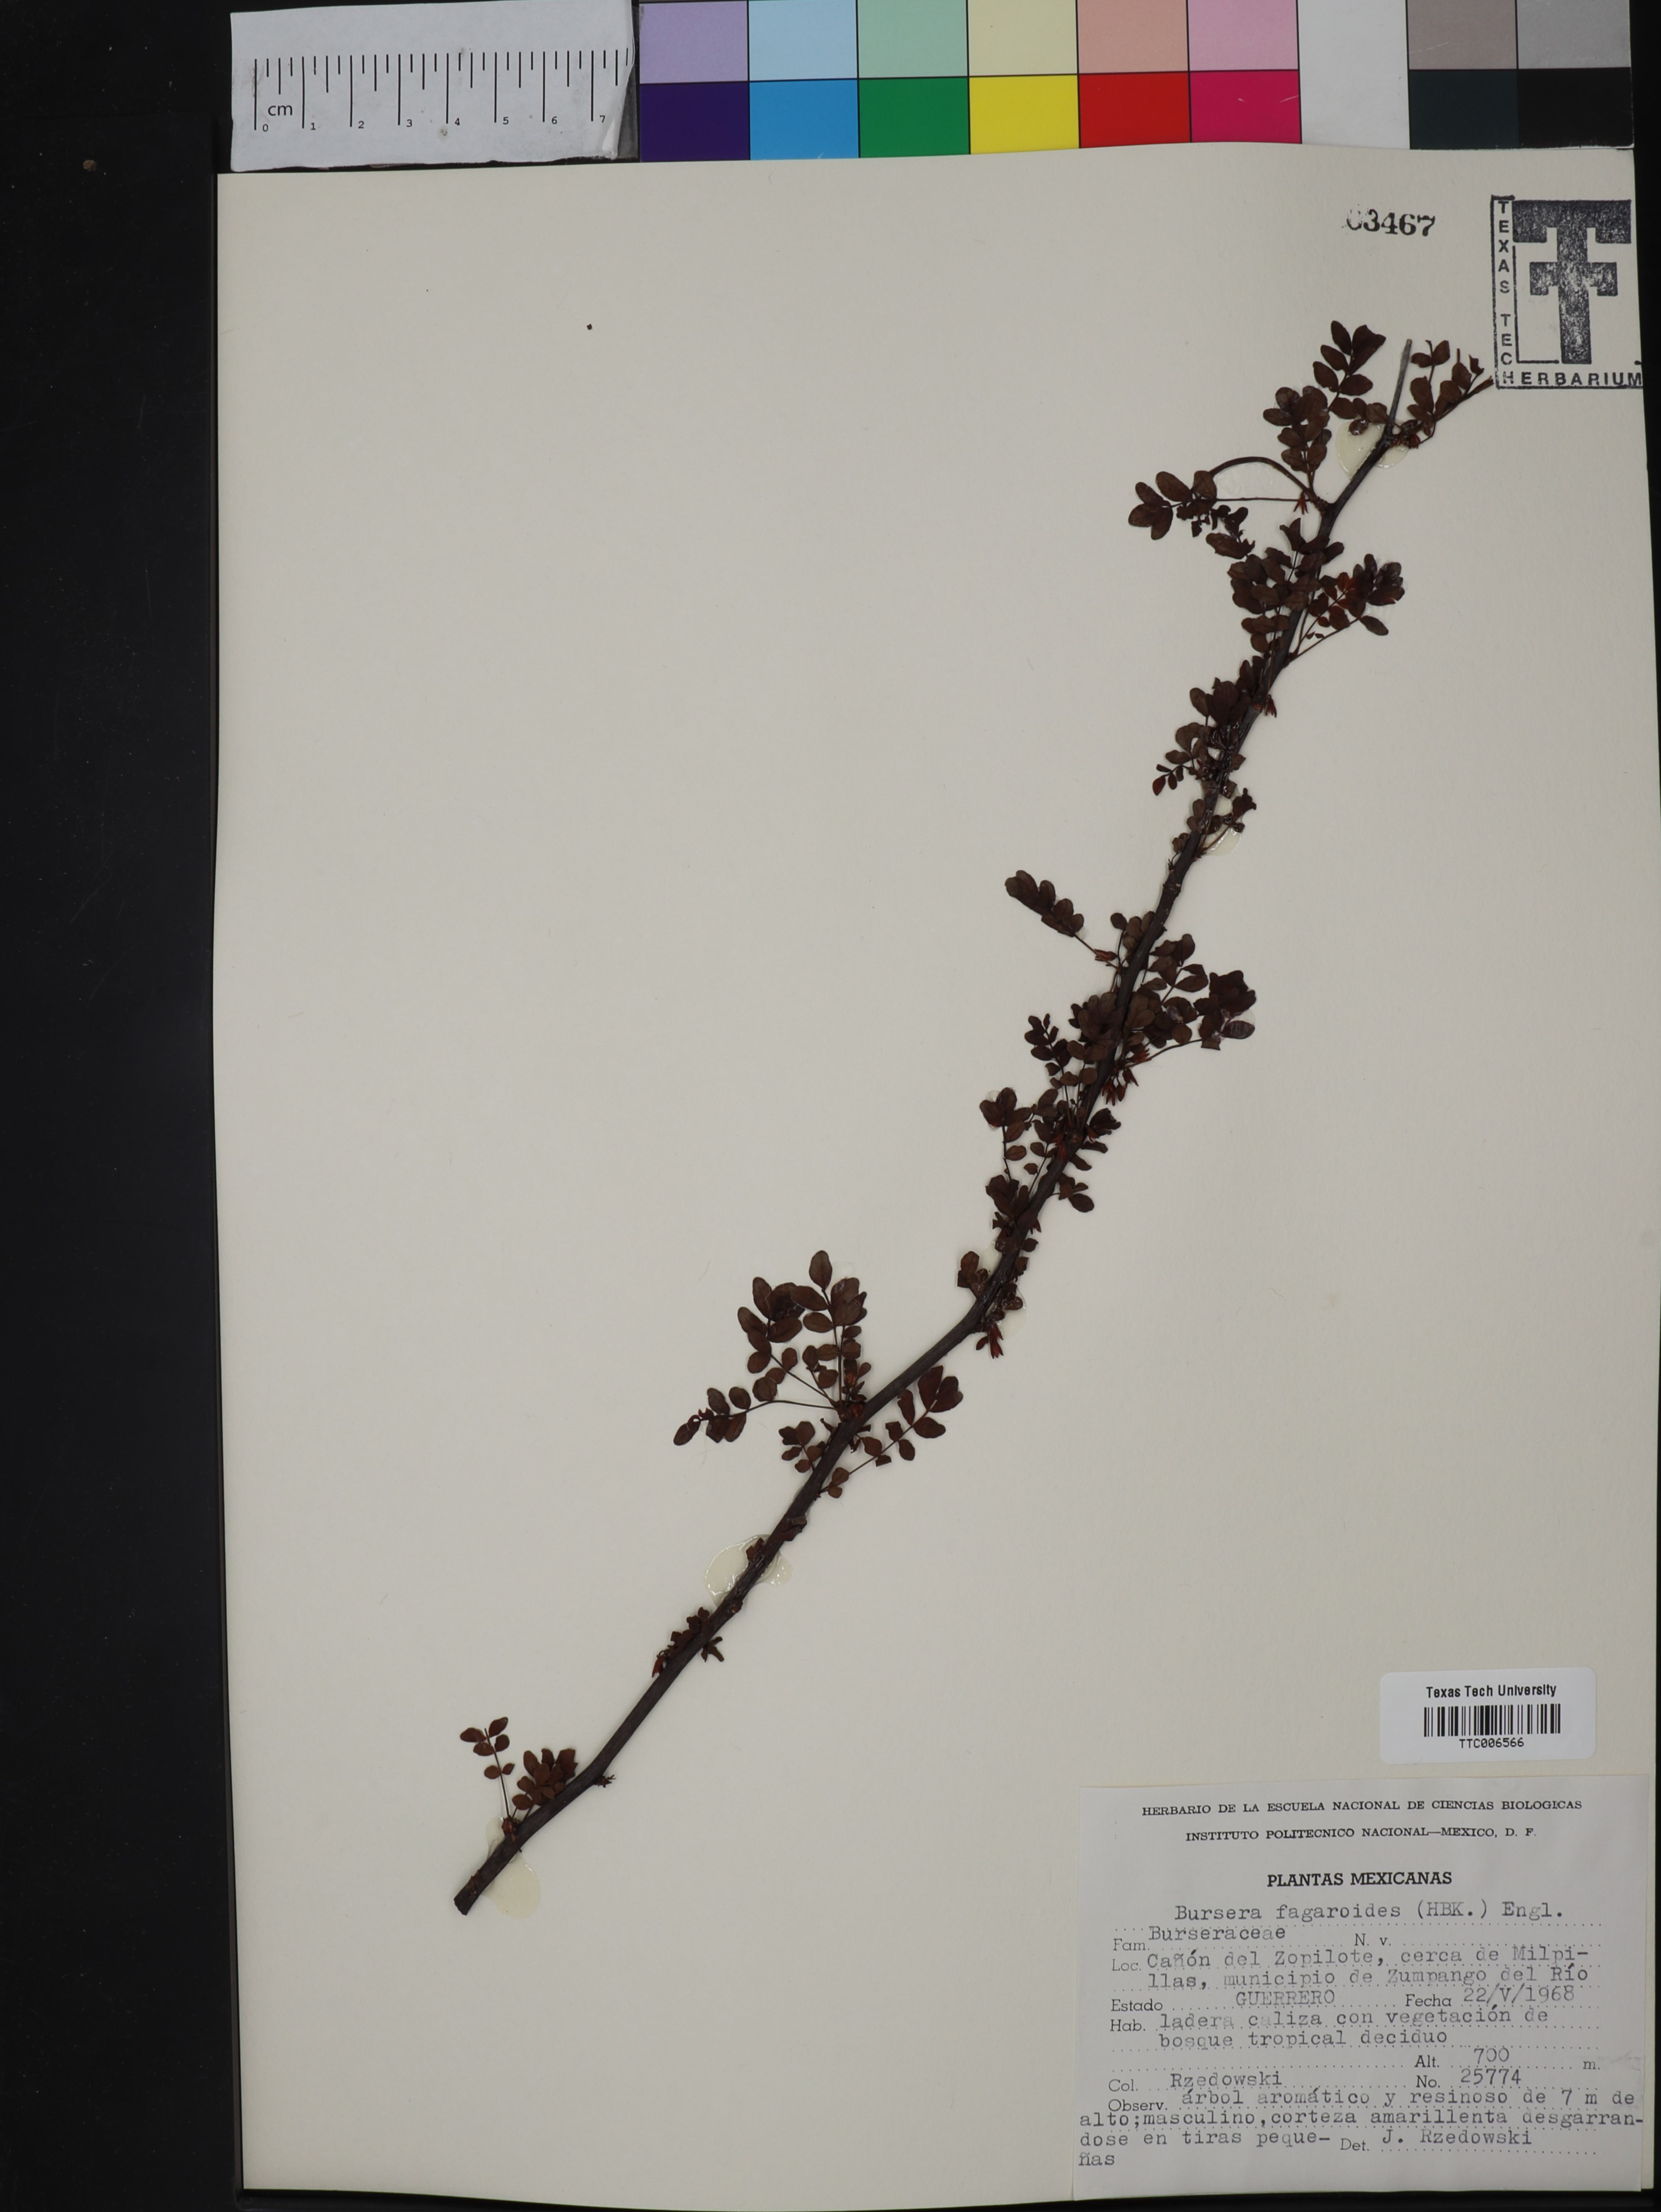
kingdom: Plantae
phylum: Tracheophyta
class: Magnoliopsida
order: Sapindales
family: Burseraceae
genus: Bursera
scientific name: Bursera fagaroides
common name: Elephant tree
